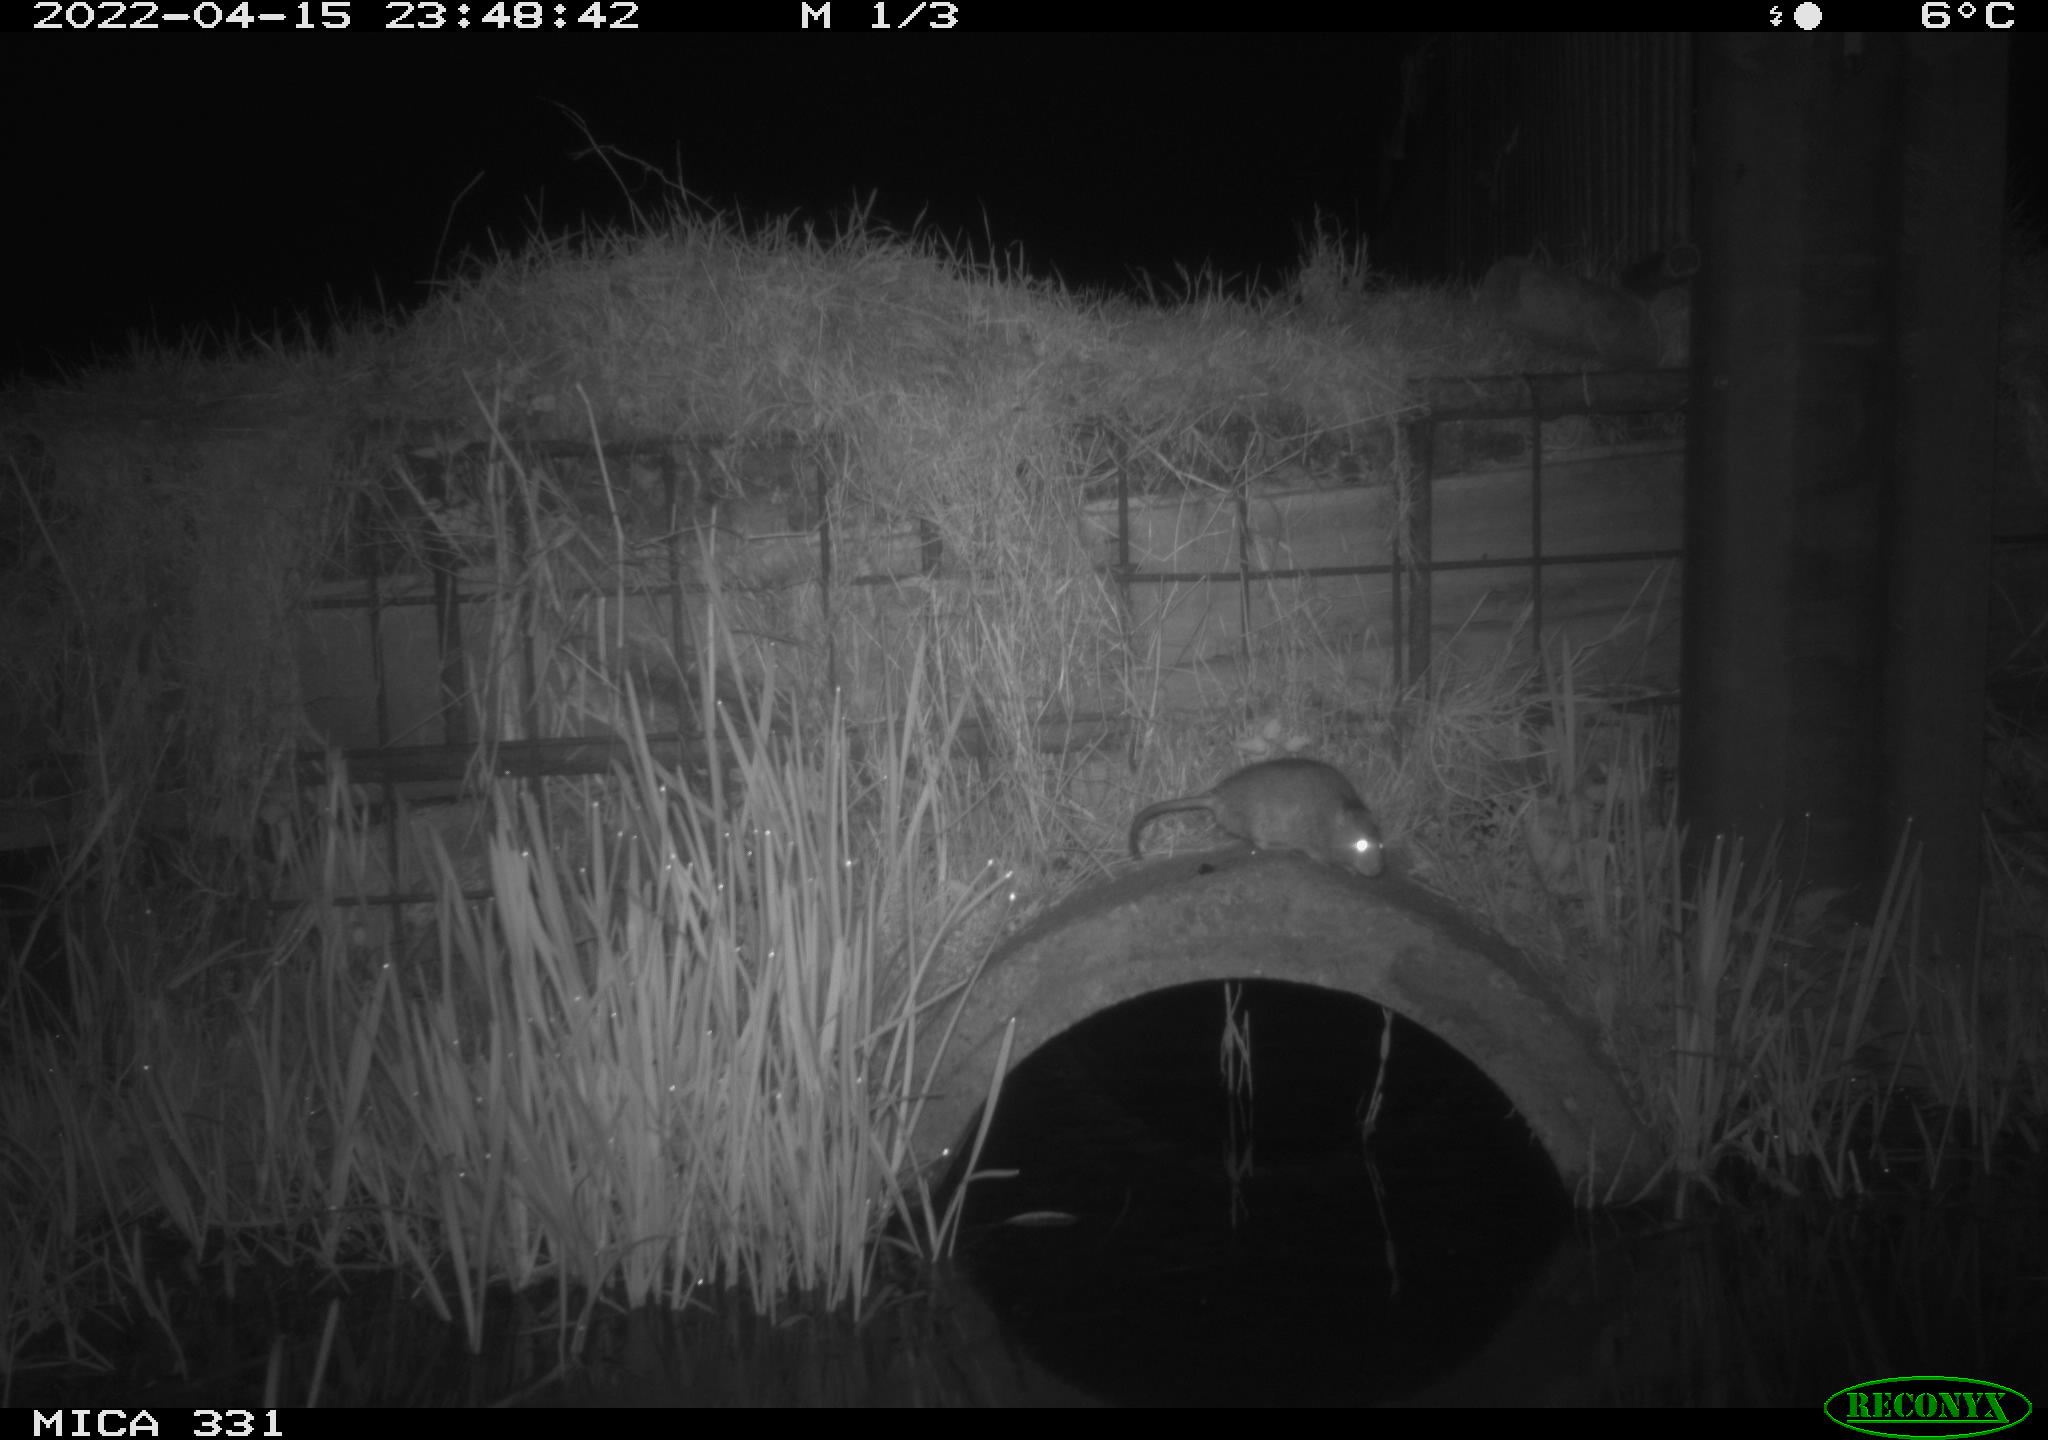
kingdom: Animalia
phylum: Chordata
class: Mammalia
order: Rodentia
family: Muridae
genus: Rattus
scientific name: Rattus norvegicus
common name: Brown rat
